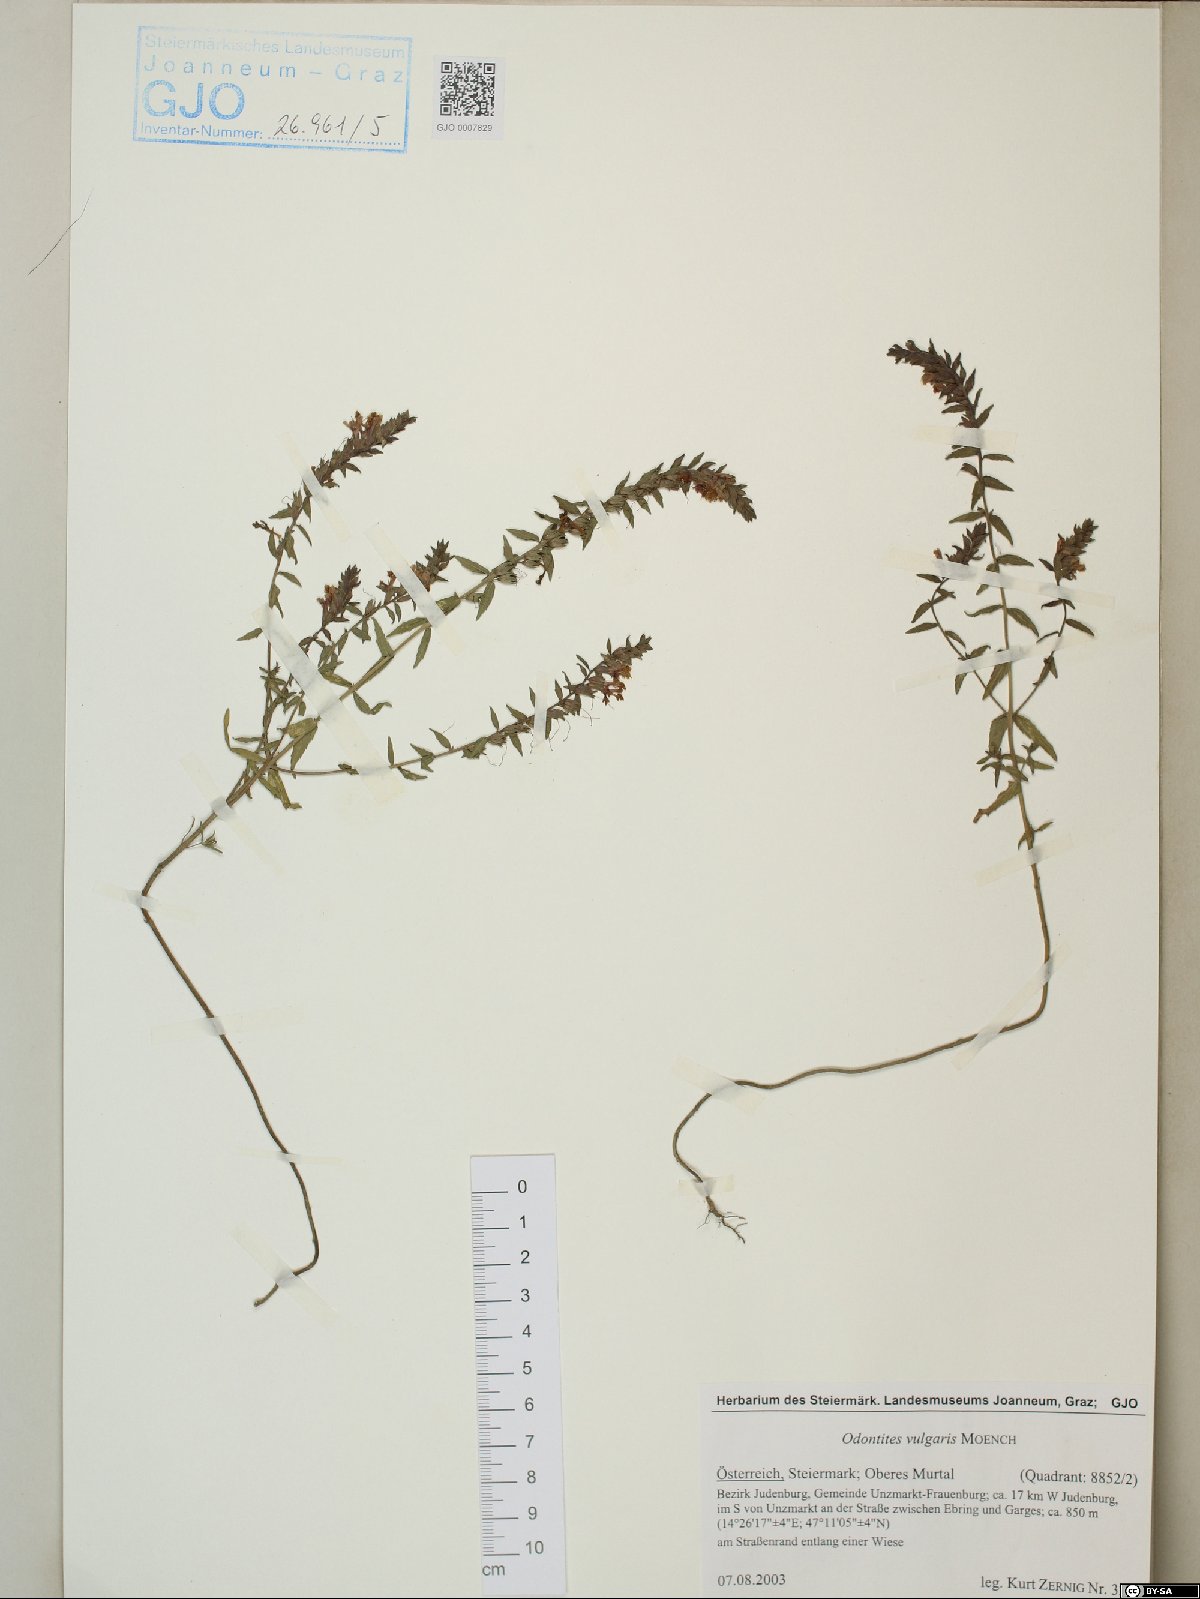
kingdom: Plantae
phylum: Tracheophyta
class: Magnoliopsida
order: Lamiales
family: Orobanchaceae
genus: Odontites
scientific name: Odontites vulgaris
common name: Broomrape
